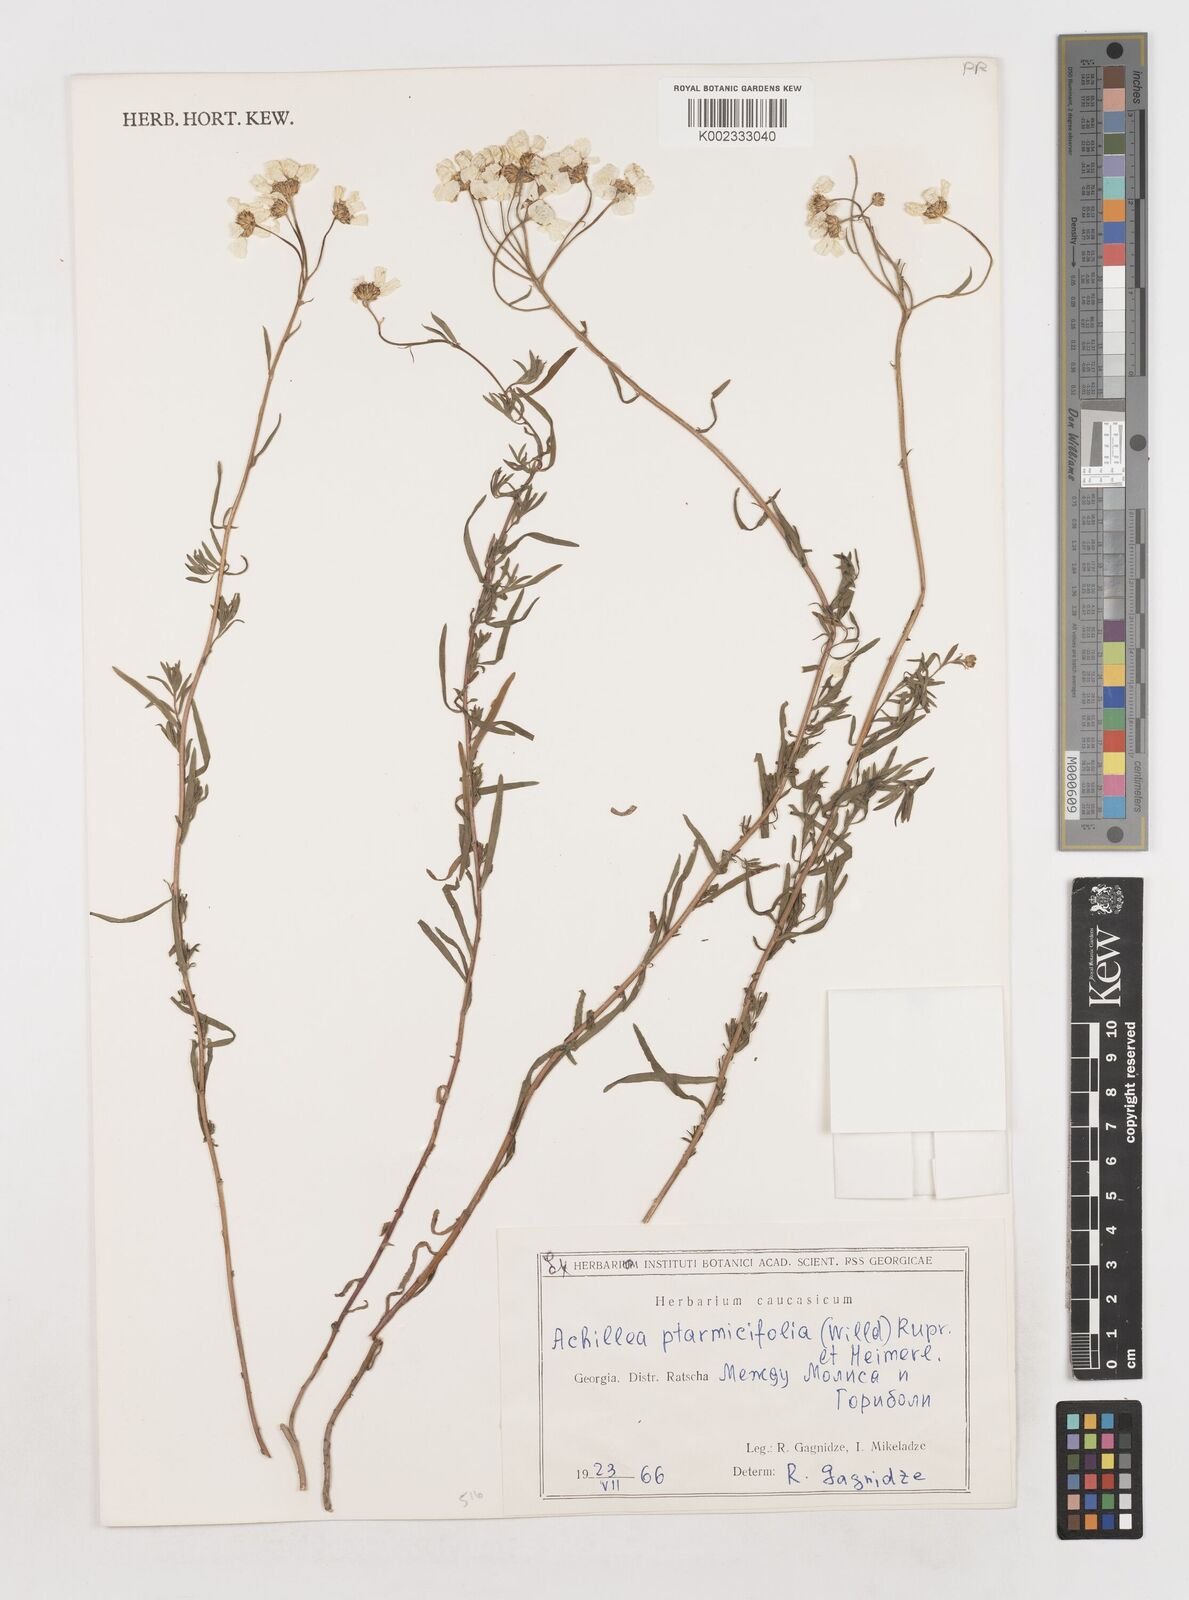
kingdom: Plantae
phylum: Tracheophyta
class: Magnoliopsida
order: Asterales
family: Asteraceae
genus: Achillea
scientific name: Achillea ptarmicifolia
